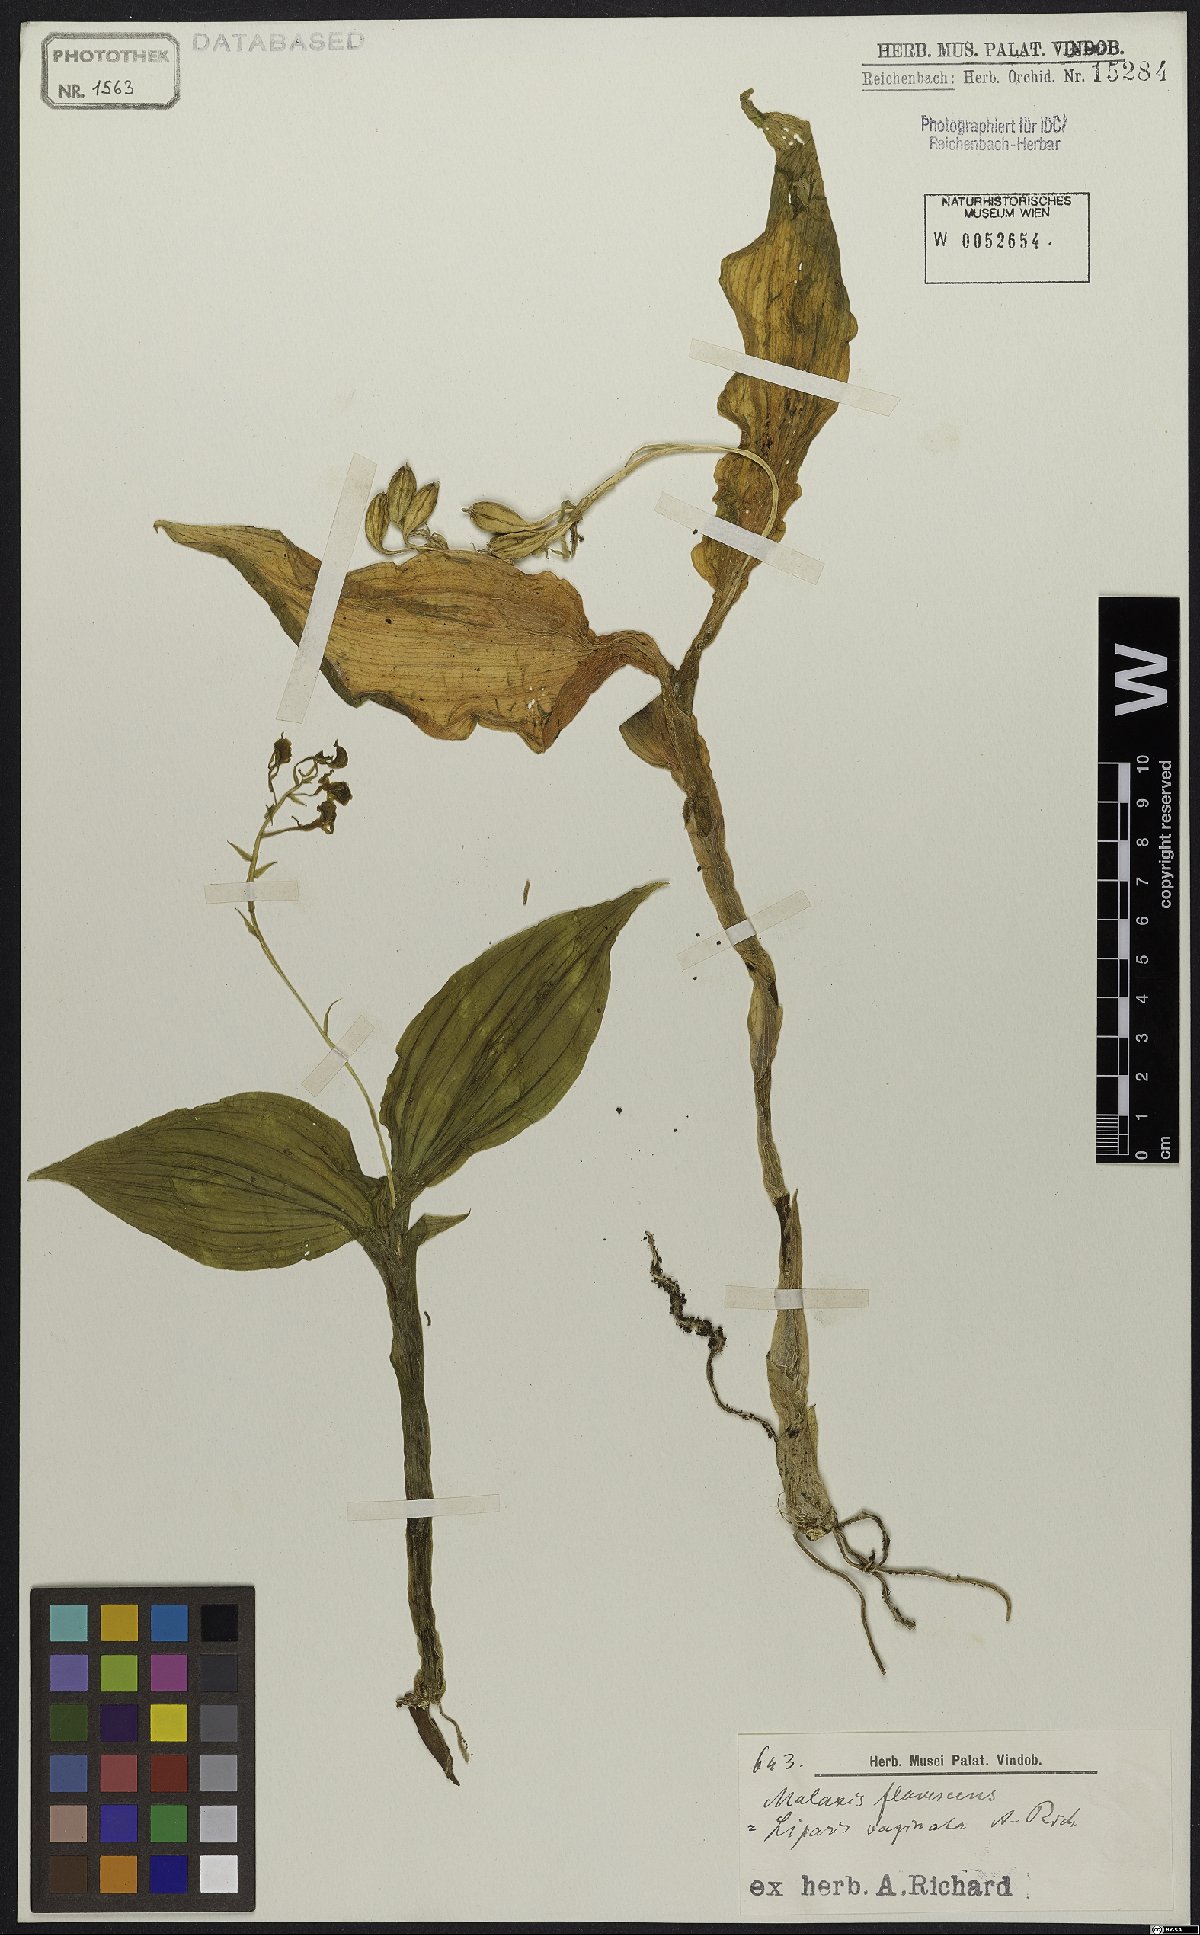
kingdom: Plantae
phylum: Tracheophyta
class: Liliopsida
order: Asparagales
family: Orchidaceae
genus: Liparis
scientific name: Liparis longa
